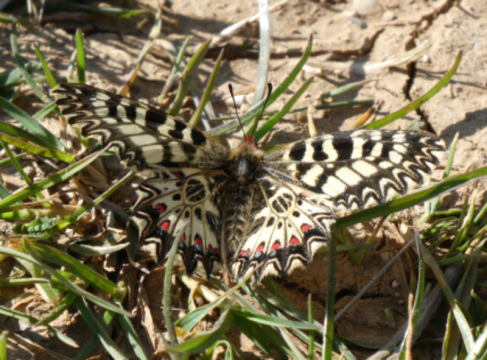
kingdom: Animalia
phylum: Arthropoda
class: Insecta
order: Lepidoptera
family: Papilionidae
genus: Zerynthia
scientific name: Zerynthia polyxena
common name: Southern Festoon
